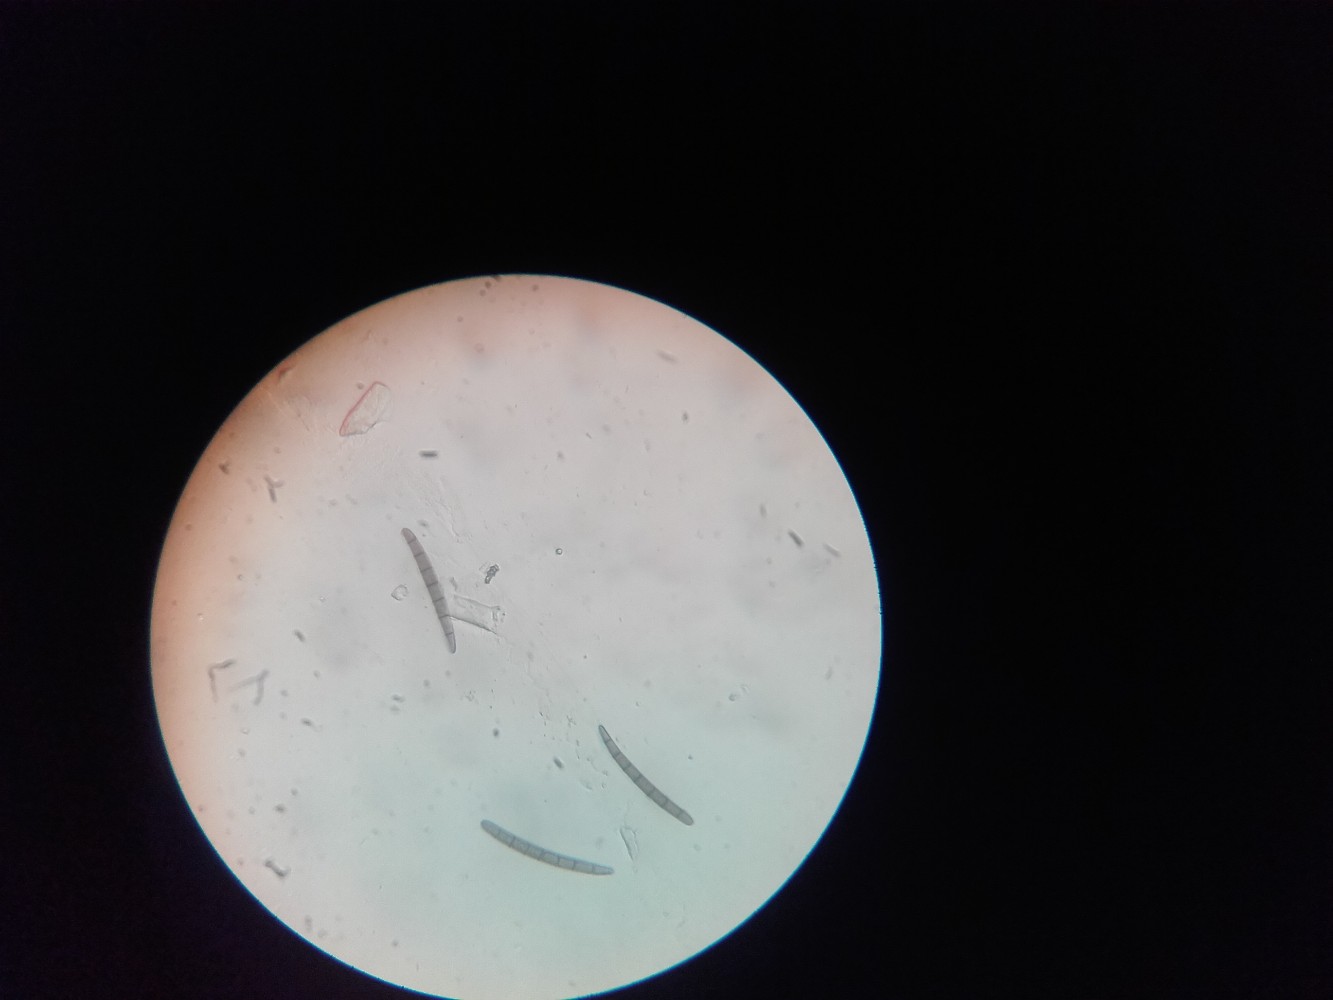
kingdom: Fungi
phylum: Ascomycota
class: Geoglossomycetes
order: Geoglossales
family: Geoglossaceae
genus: Geoglossum
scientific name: Geoglossum
